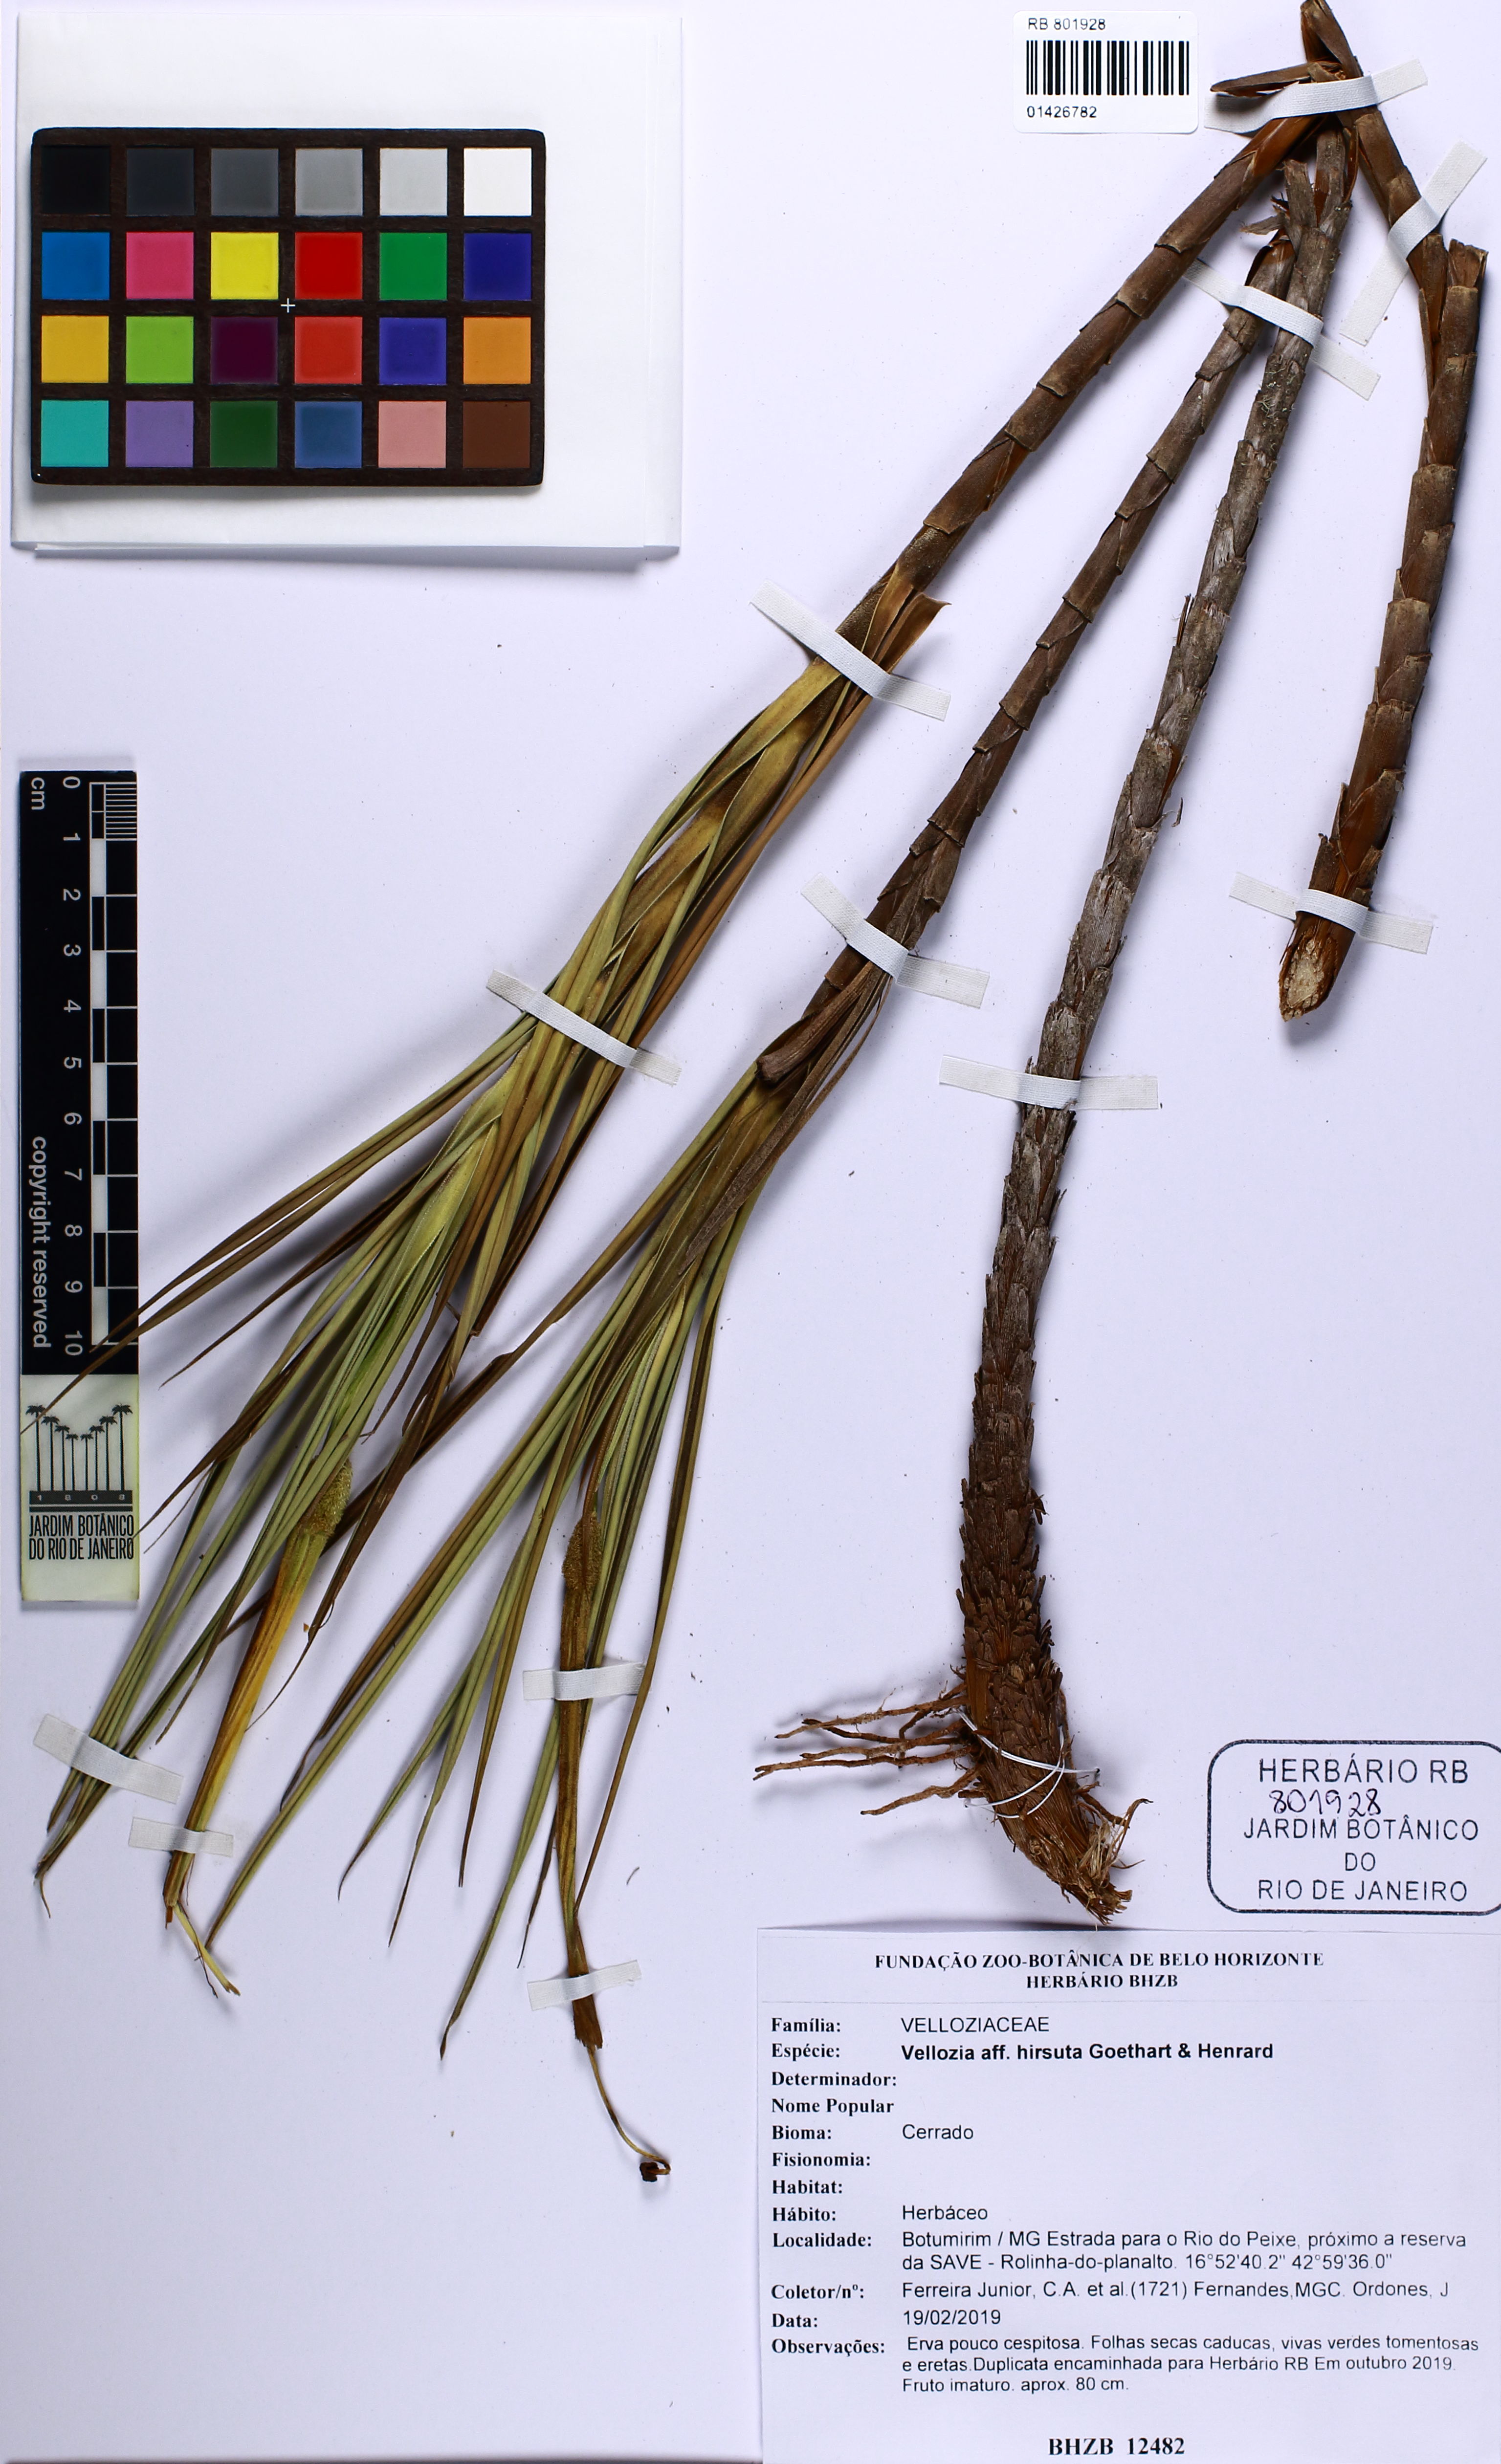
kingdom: Plantae
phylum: Tracheophyta
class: Liliopsida
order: Pandanales
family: Velloziaceae
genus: Vellozia
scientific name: Vellozia hirsuta
